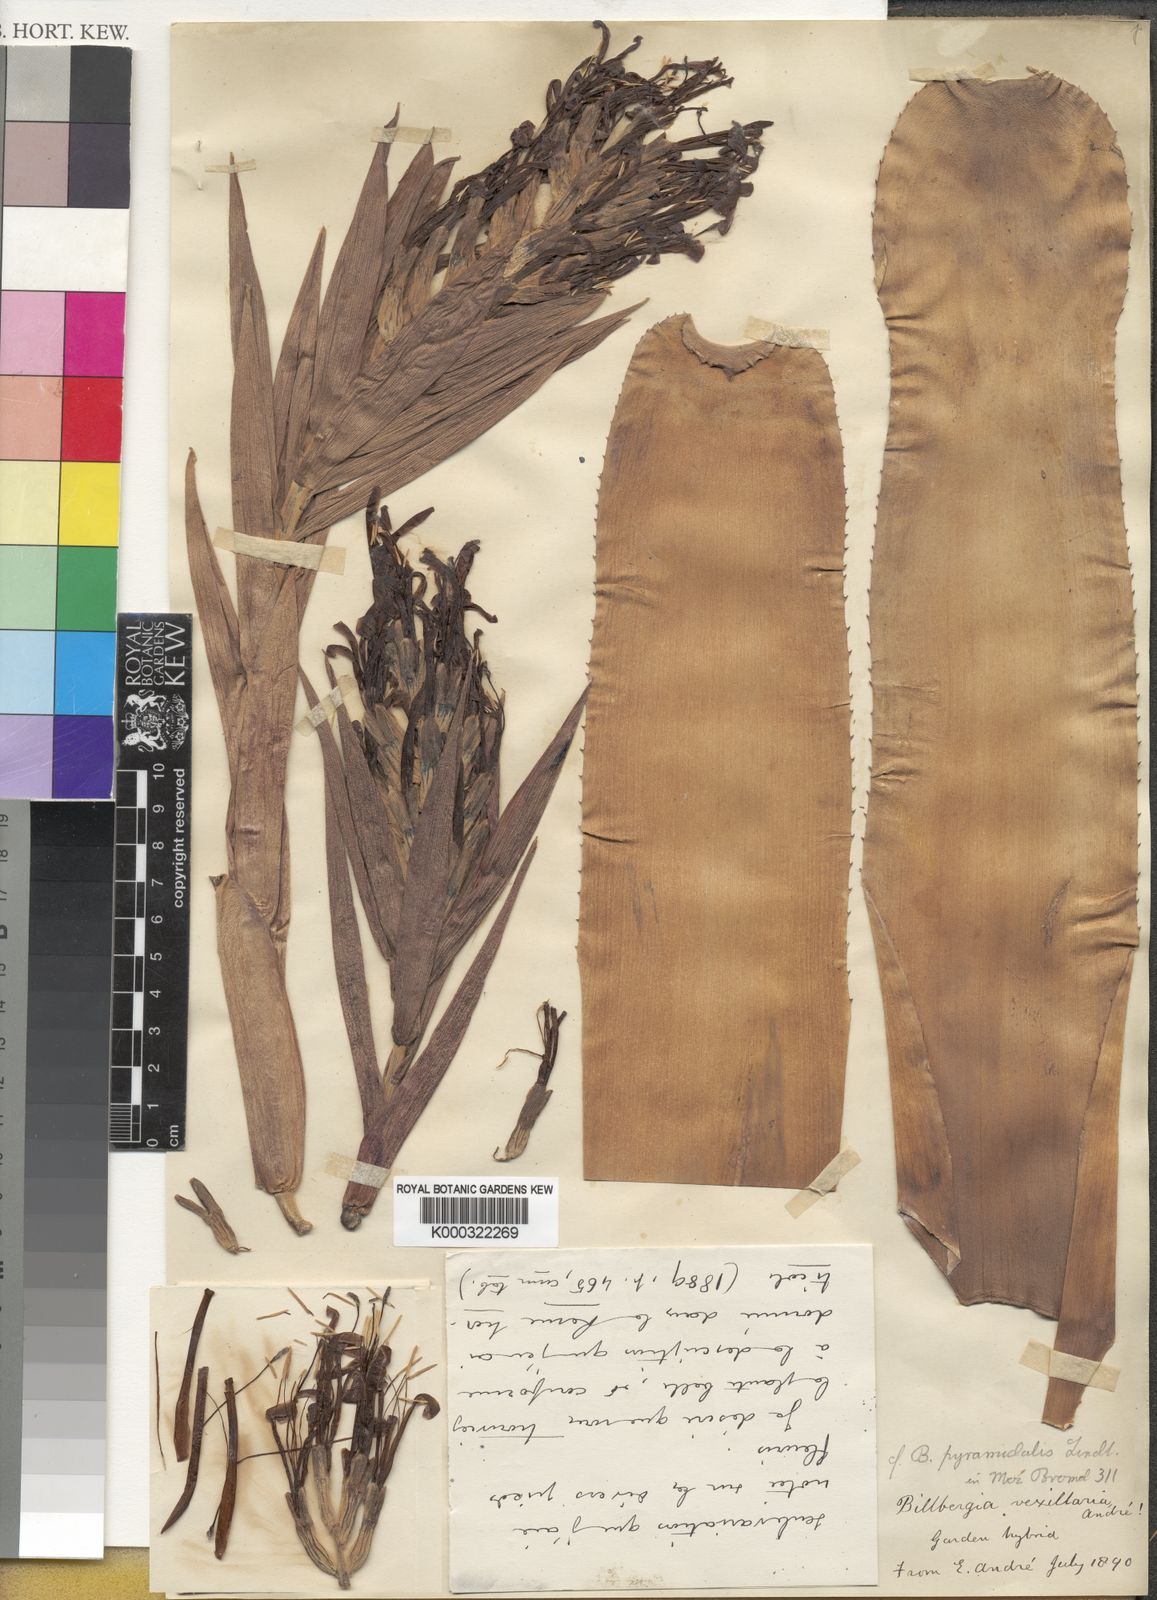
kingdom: Plantae
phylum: Tracheophyta
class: Liliopsida
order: Poales
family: Bromeliaceae
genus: Billbergia
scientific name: Billbergia jenischiana
